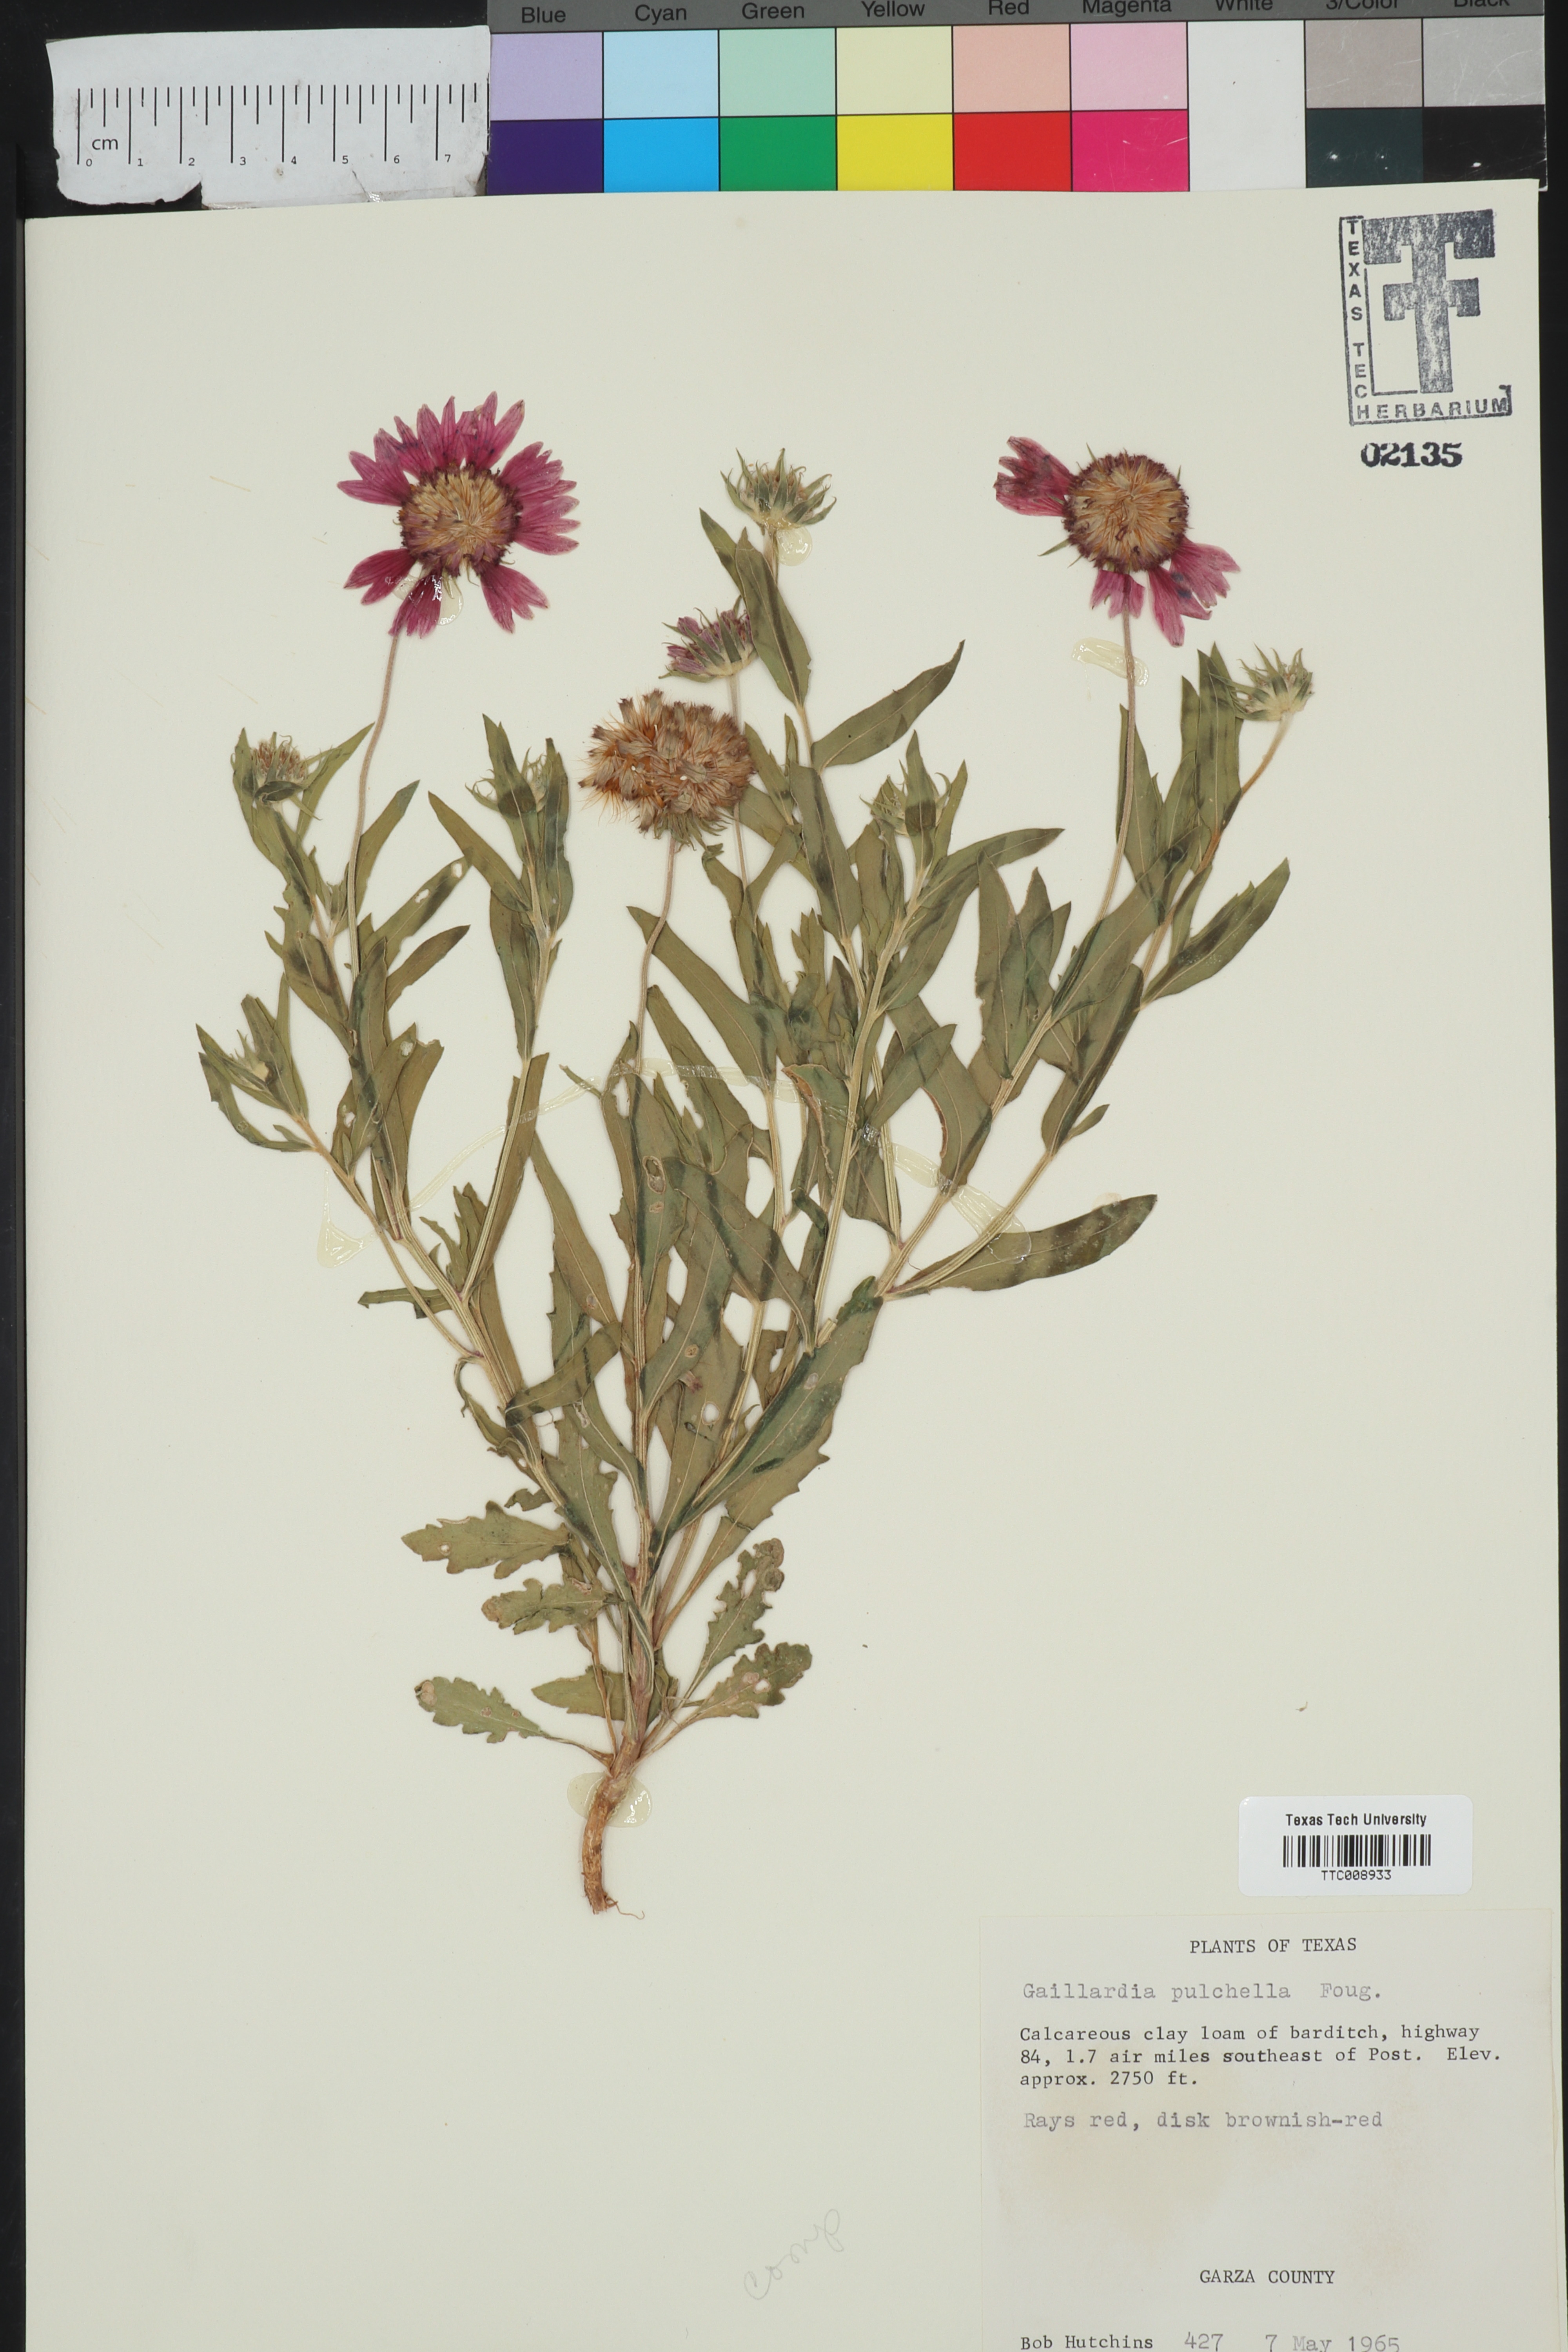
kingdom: Plantae
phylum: Tracheophyta
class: Magnoliopsida
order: Asterales
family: Asteraceae
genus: Gaillardia
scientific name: Gaillardia pulchella
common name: Firewheel
